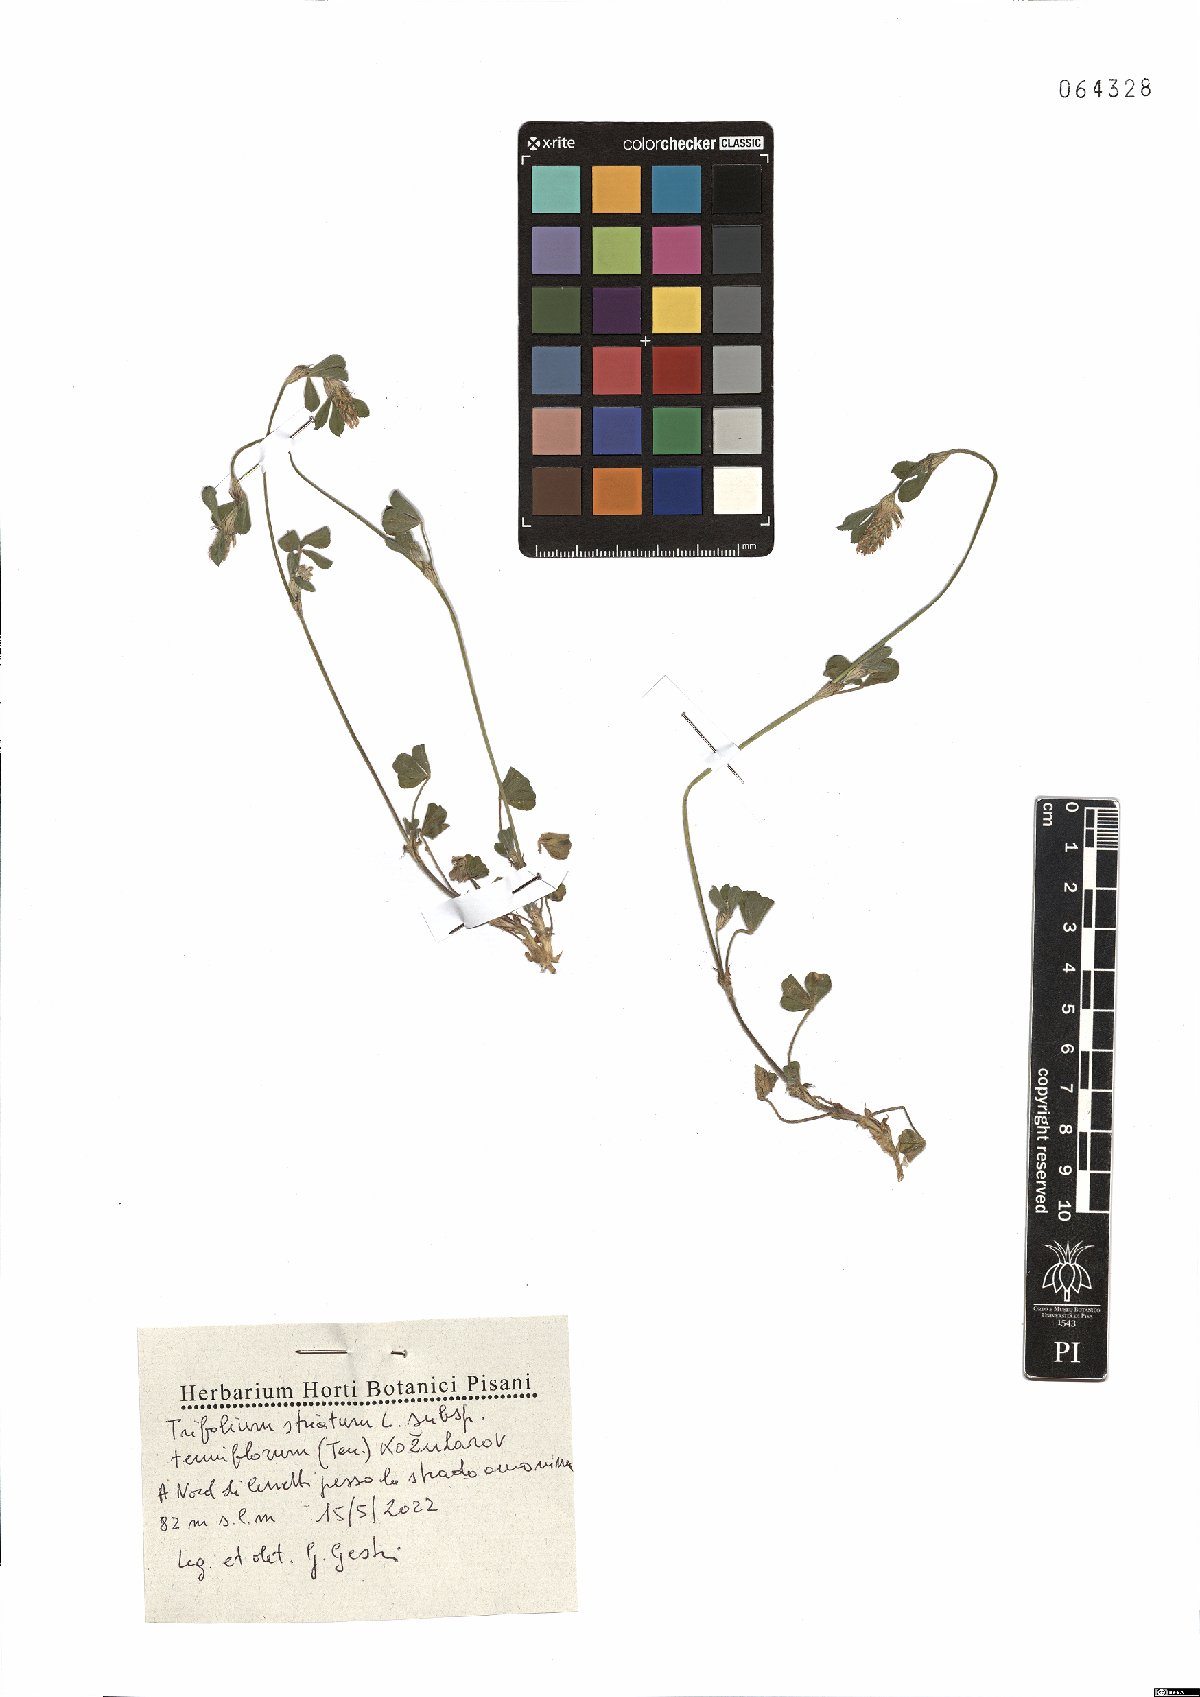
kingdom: Plantae
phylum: Tracheophyta
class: Magnoliopsida
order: Fabales
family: Fabaceae
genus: Trifolium
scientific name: Trifolium striatum
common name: Knotted clover
